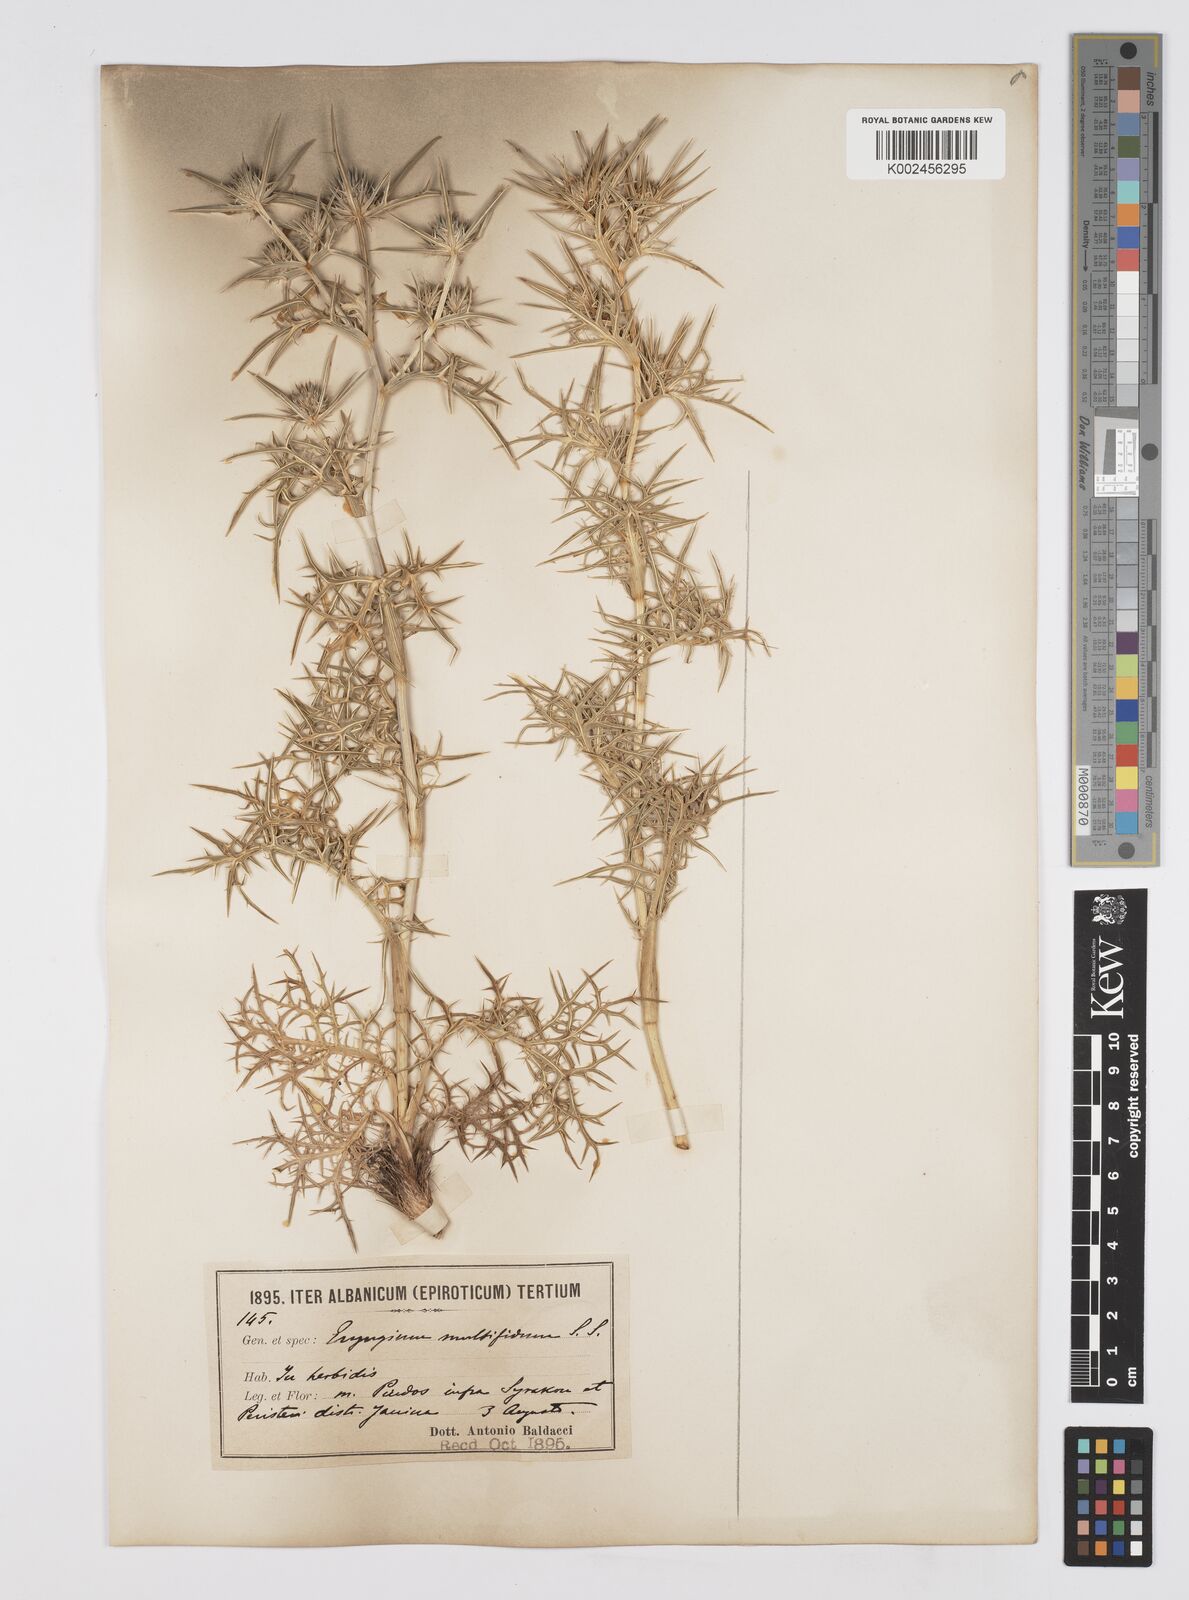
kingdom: Plantae
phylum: Tracheophyta
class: Magnoliopsida
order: Apiales
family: Apiaceae
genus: Eryngium
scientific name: Eryngium amethystinum
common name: Amethyst eryngo
